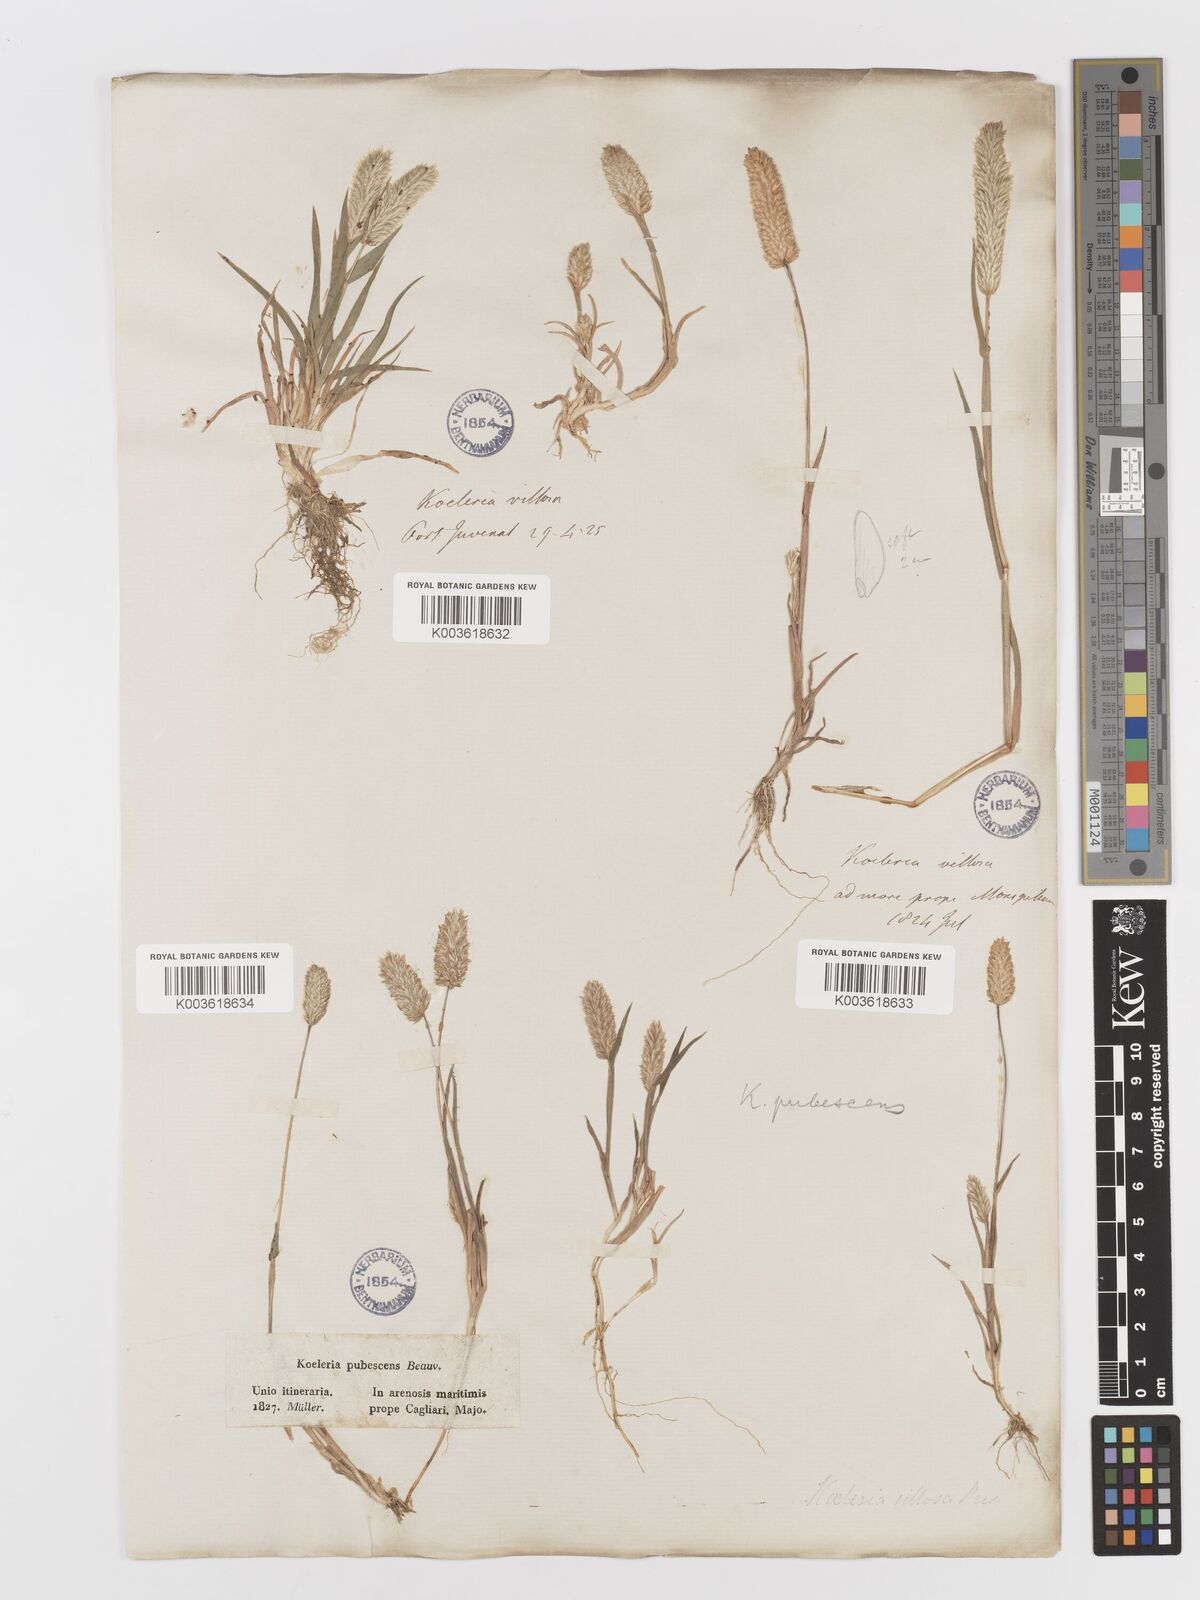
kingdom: Plantae
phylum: Tracheophyta
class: Liliopsida
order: Poales
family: Poaceae
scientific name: Poaceae
